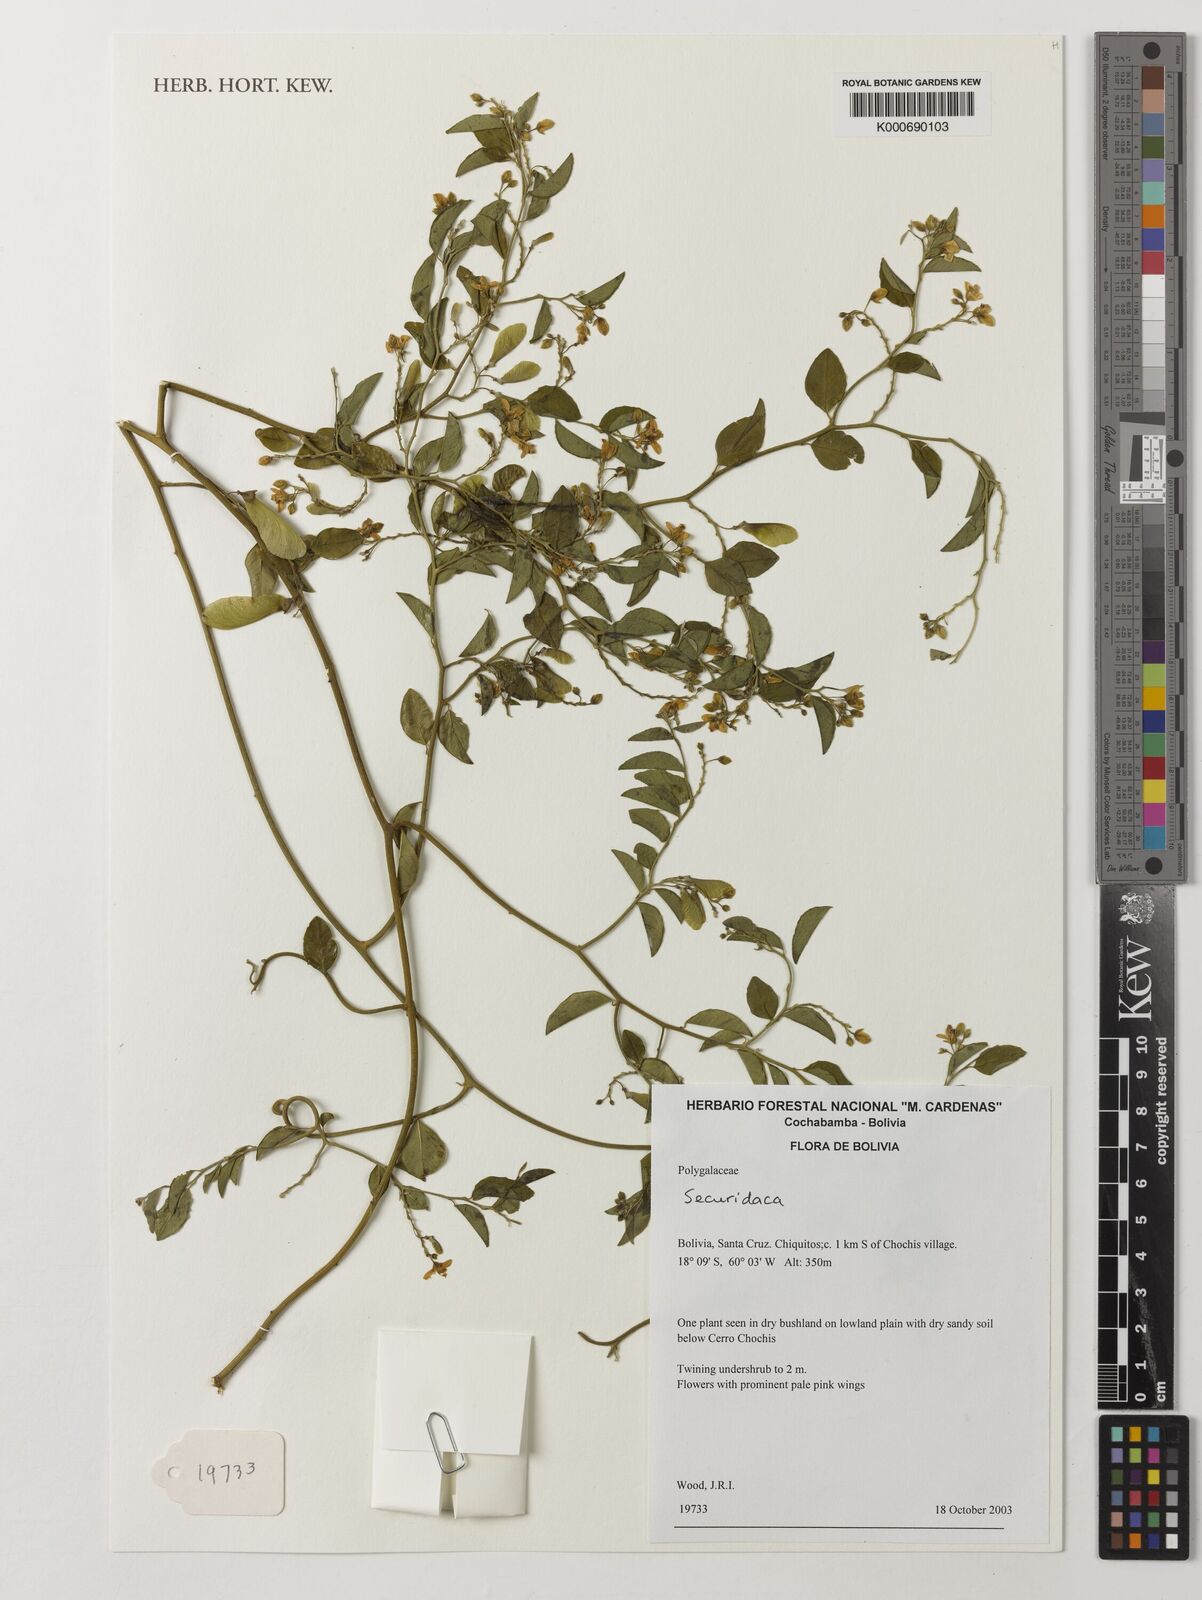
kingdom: Plantae
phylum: Tracheophyta
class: Magnoliopsida
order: Fabales
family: Polygalaceae
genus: Securidaca
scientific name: Securidaca
